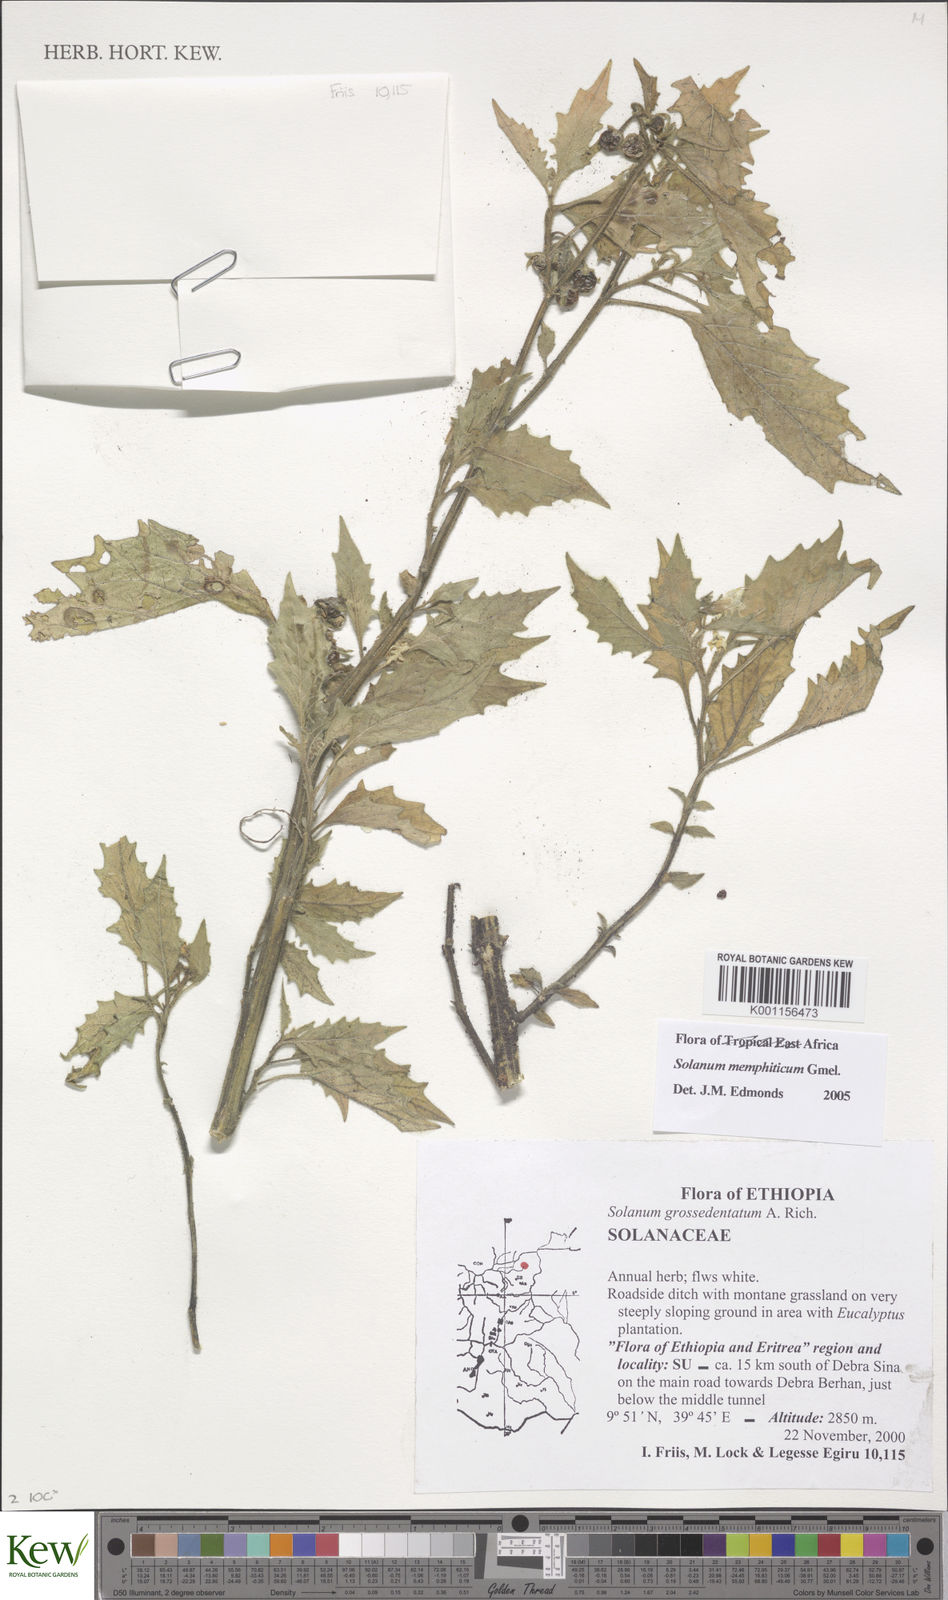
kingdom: Plantae
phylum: Tracheophyta
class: Magnoliopsida
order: Solanales
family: Solanaceae
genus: Solanum
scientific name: Solanum memphiticum
